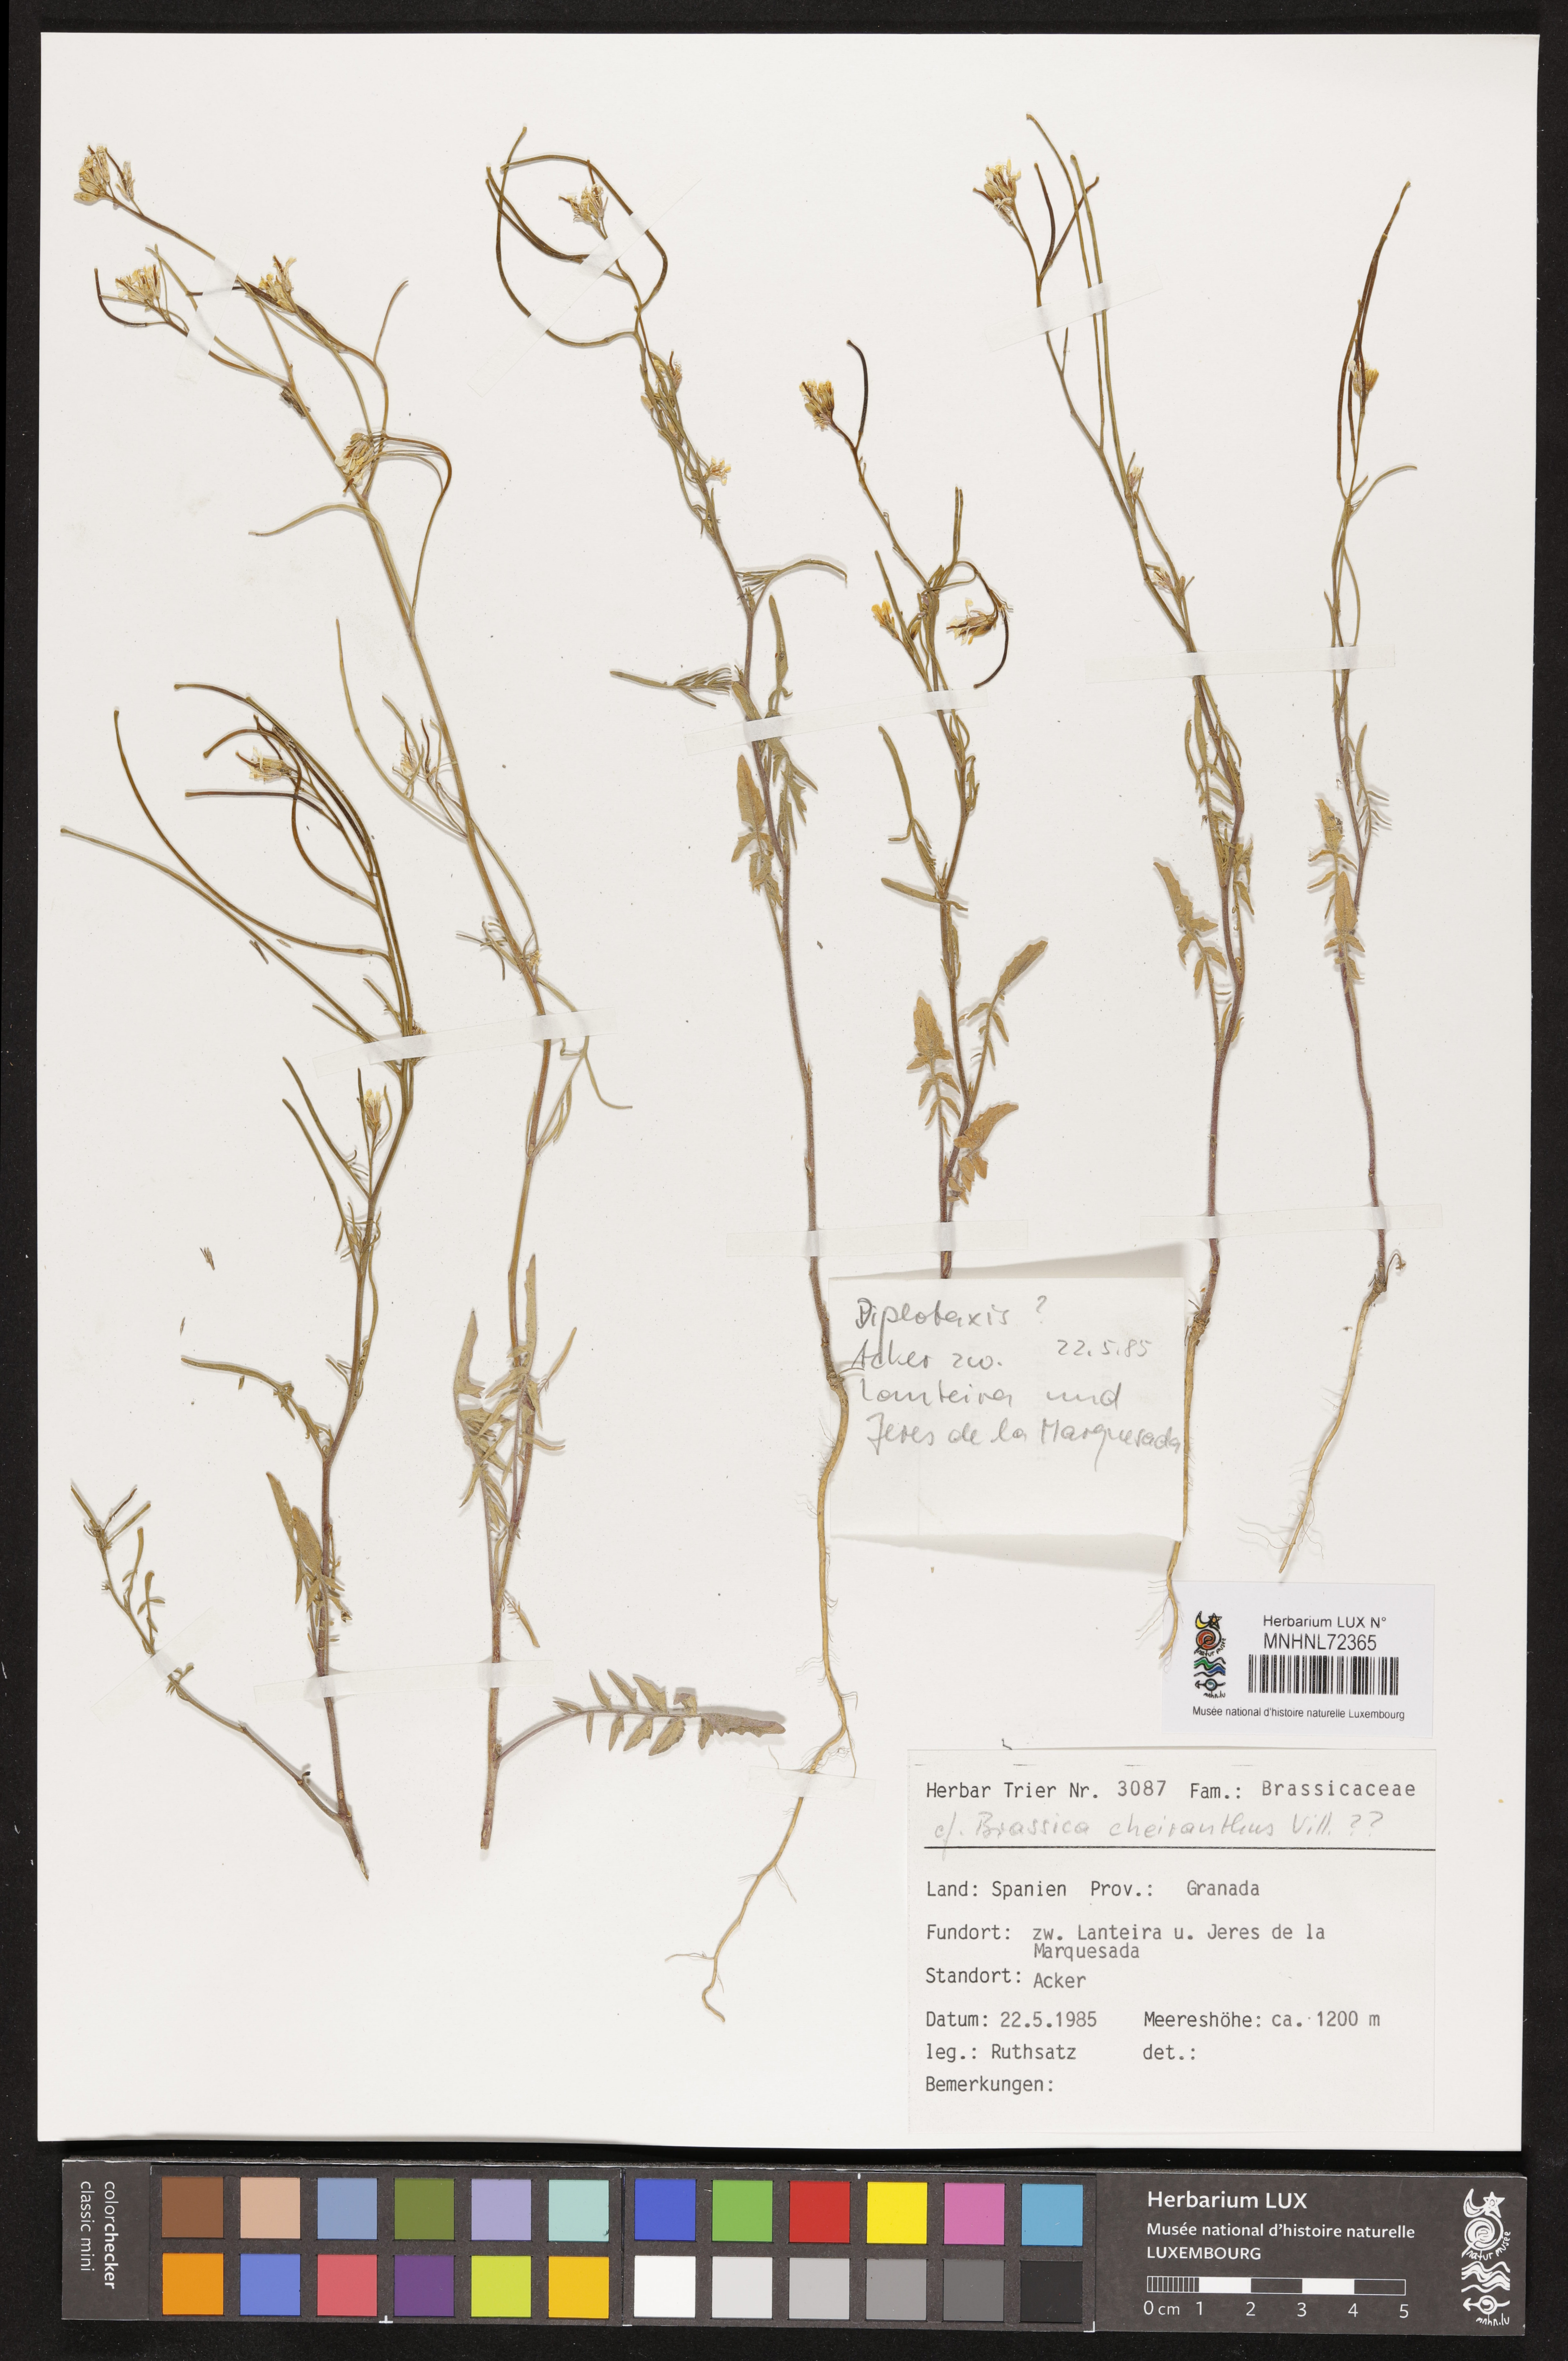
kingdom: Plantae
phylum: Tracheophyta
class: Magnoliopsida
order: Brassicales
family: Brassicaceae
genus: Coincya
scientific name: Coincya monensis
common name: Star-mustard
